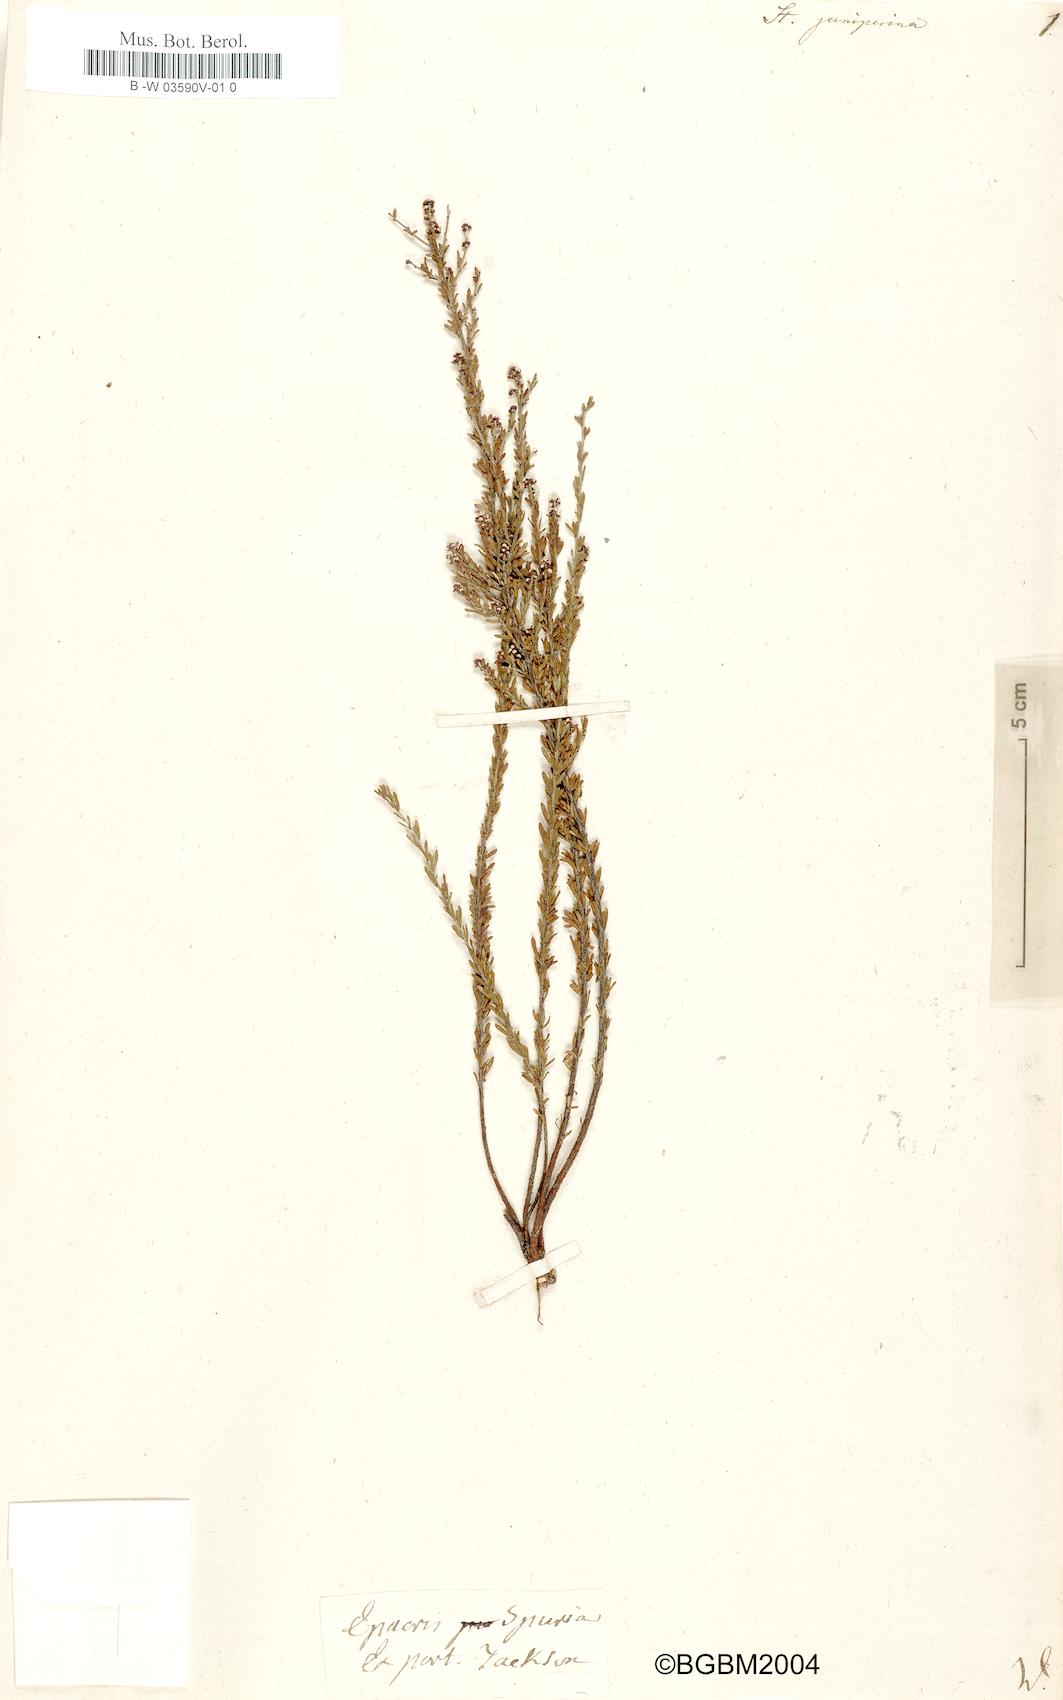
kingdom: Plantae
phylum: Tracheophyta
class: Magnoliopsida
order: Ericales
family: Ericaceae
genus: Styphelia
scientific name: Styphelia sieberi
